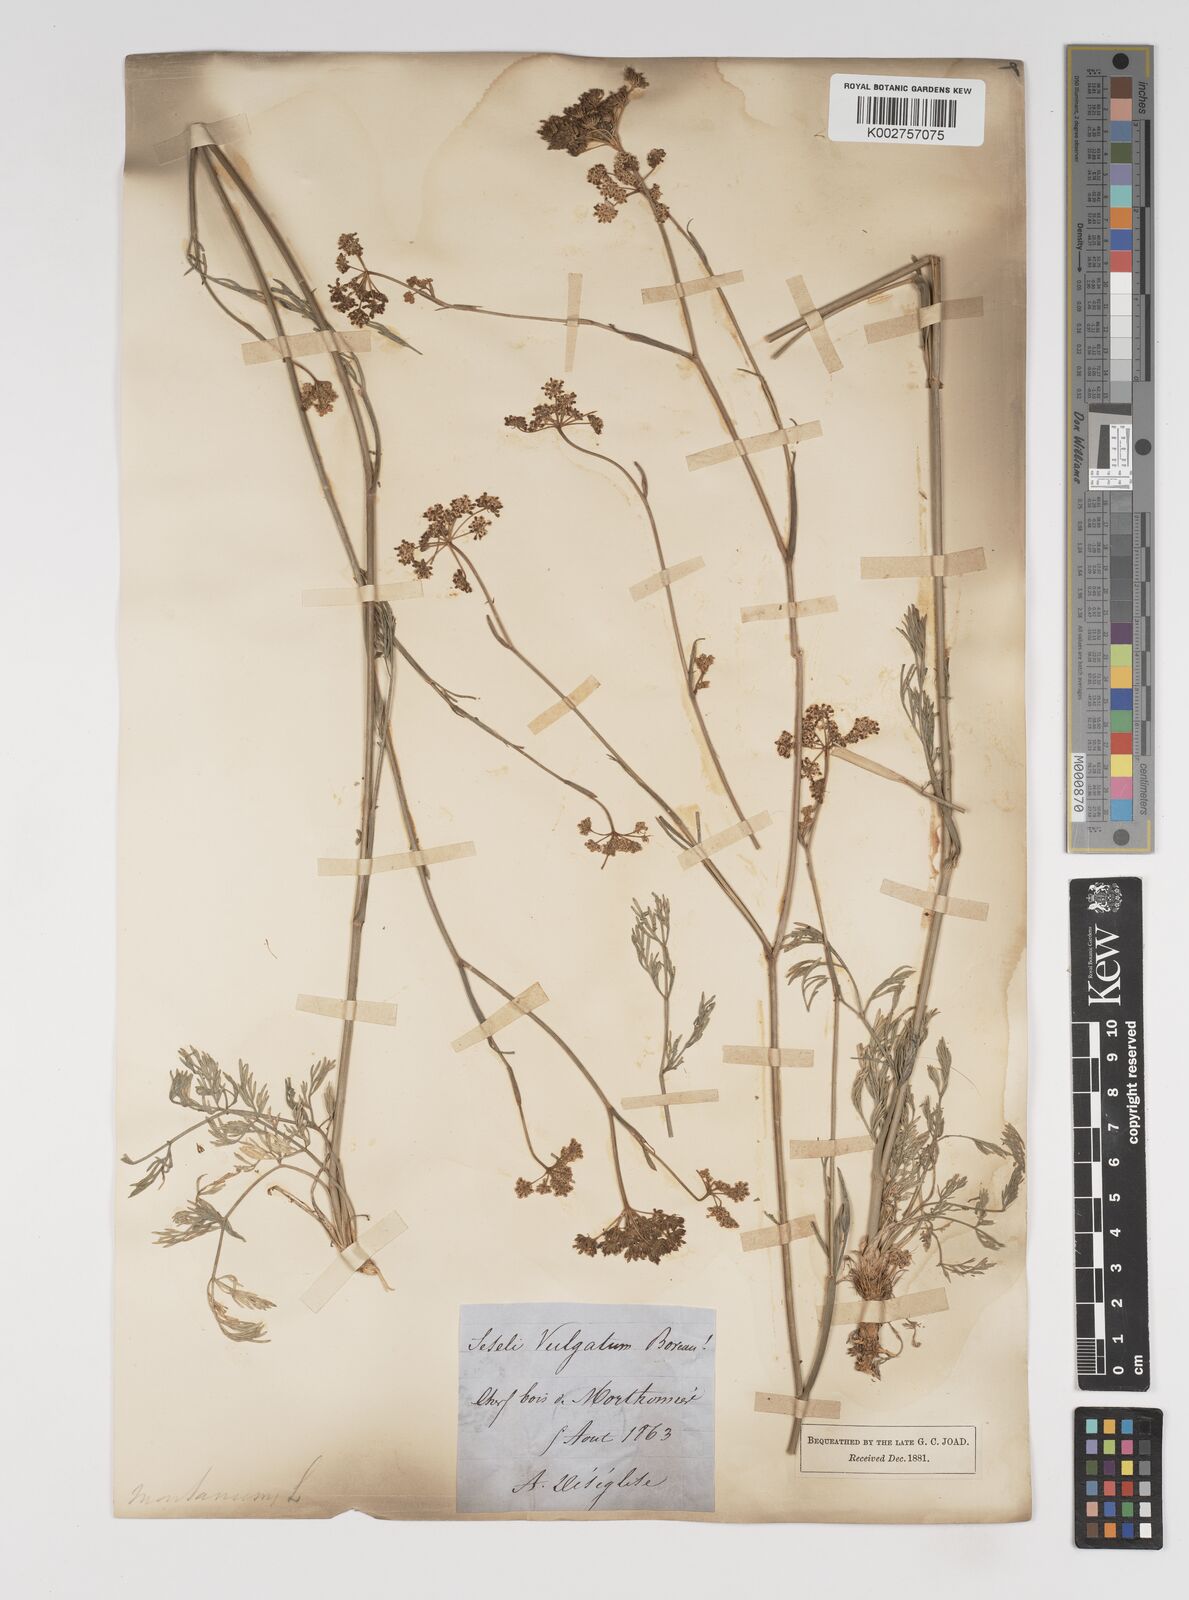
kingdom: Plantae
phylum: Tracheophyta
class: Magnoliopsida
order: Apiales
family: Apiaceae
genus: Seseli
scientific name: Seseli montanum
